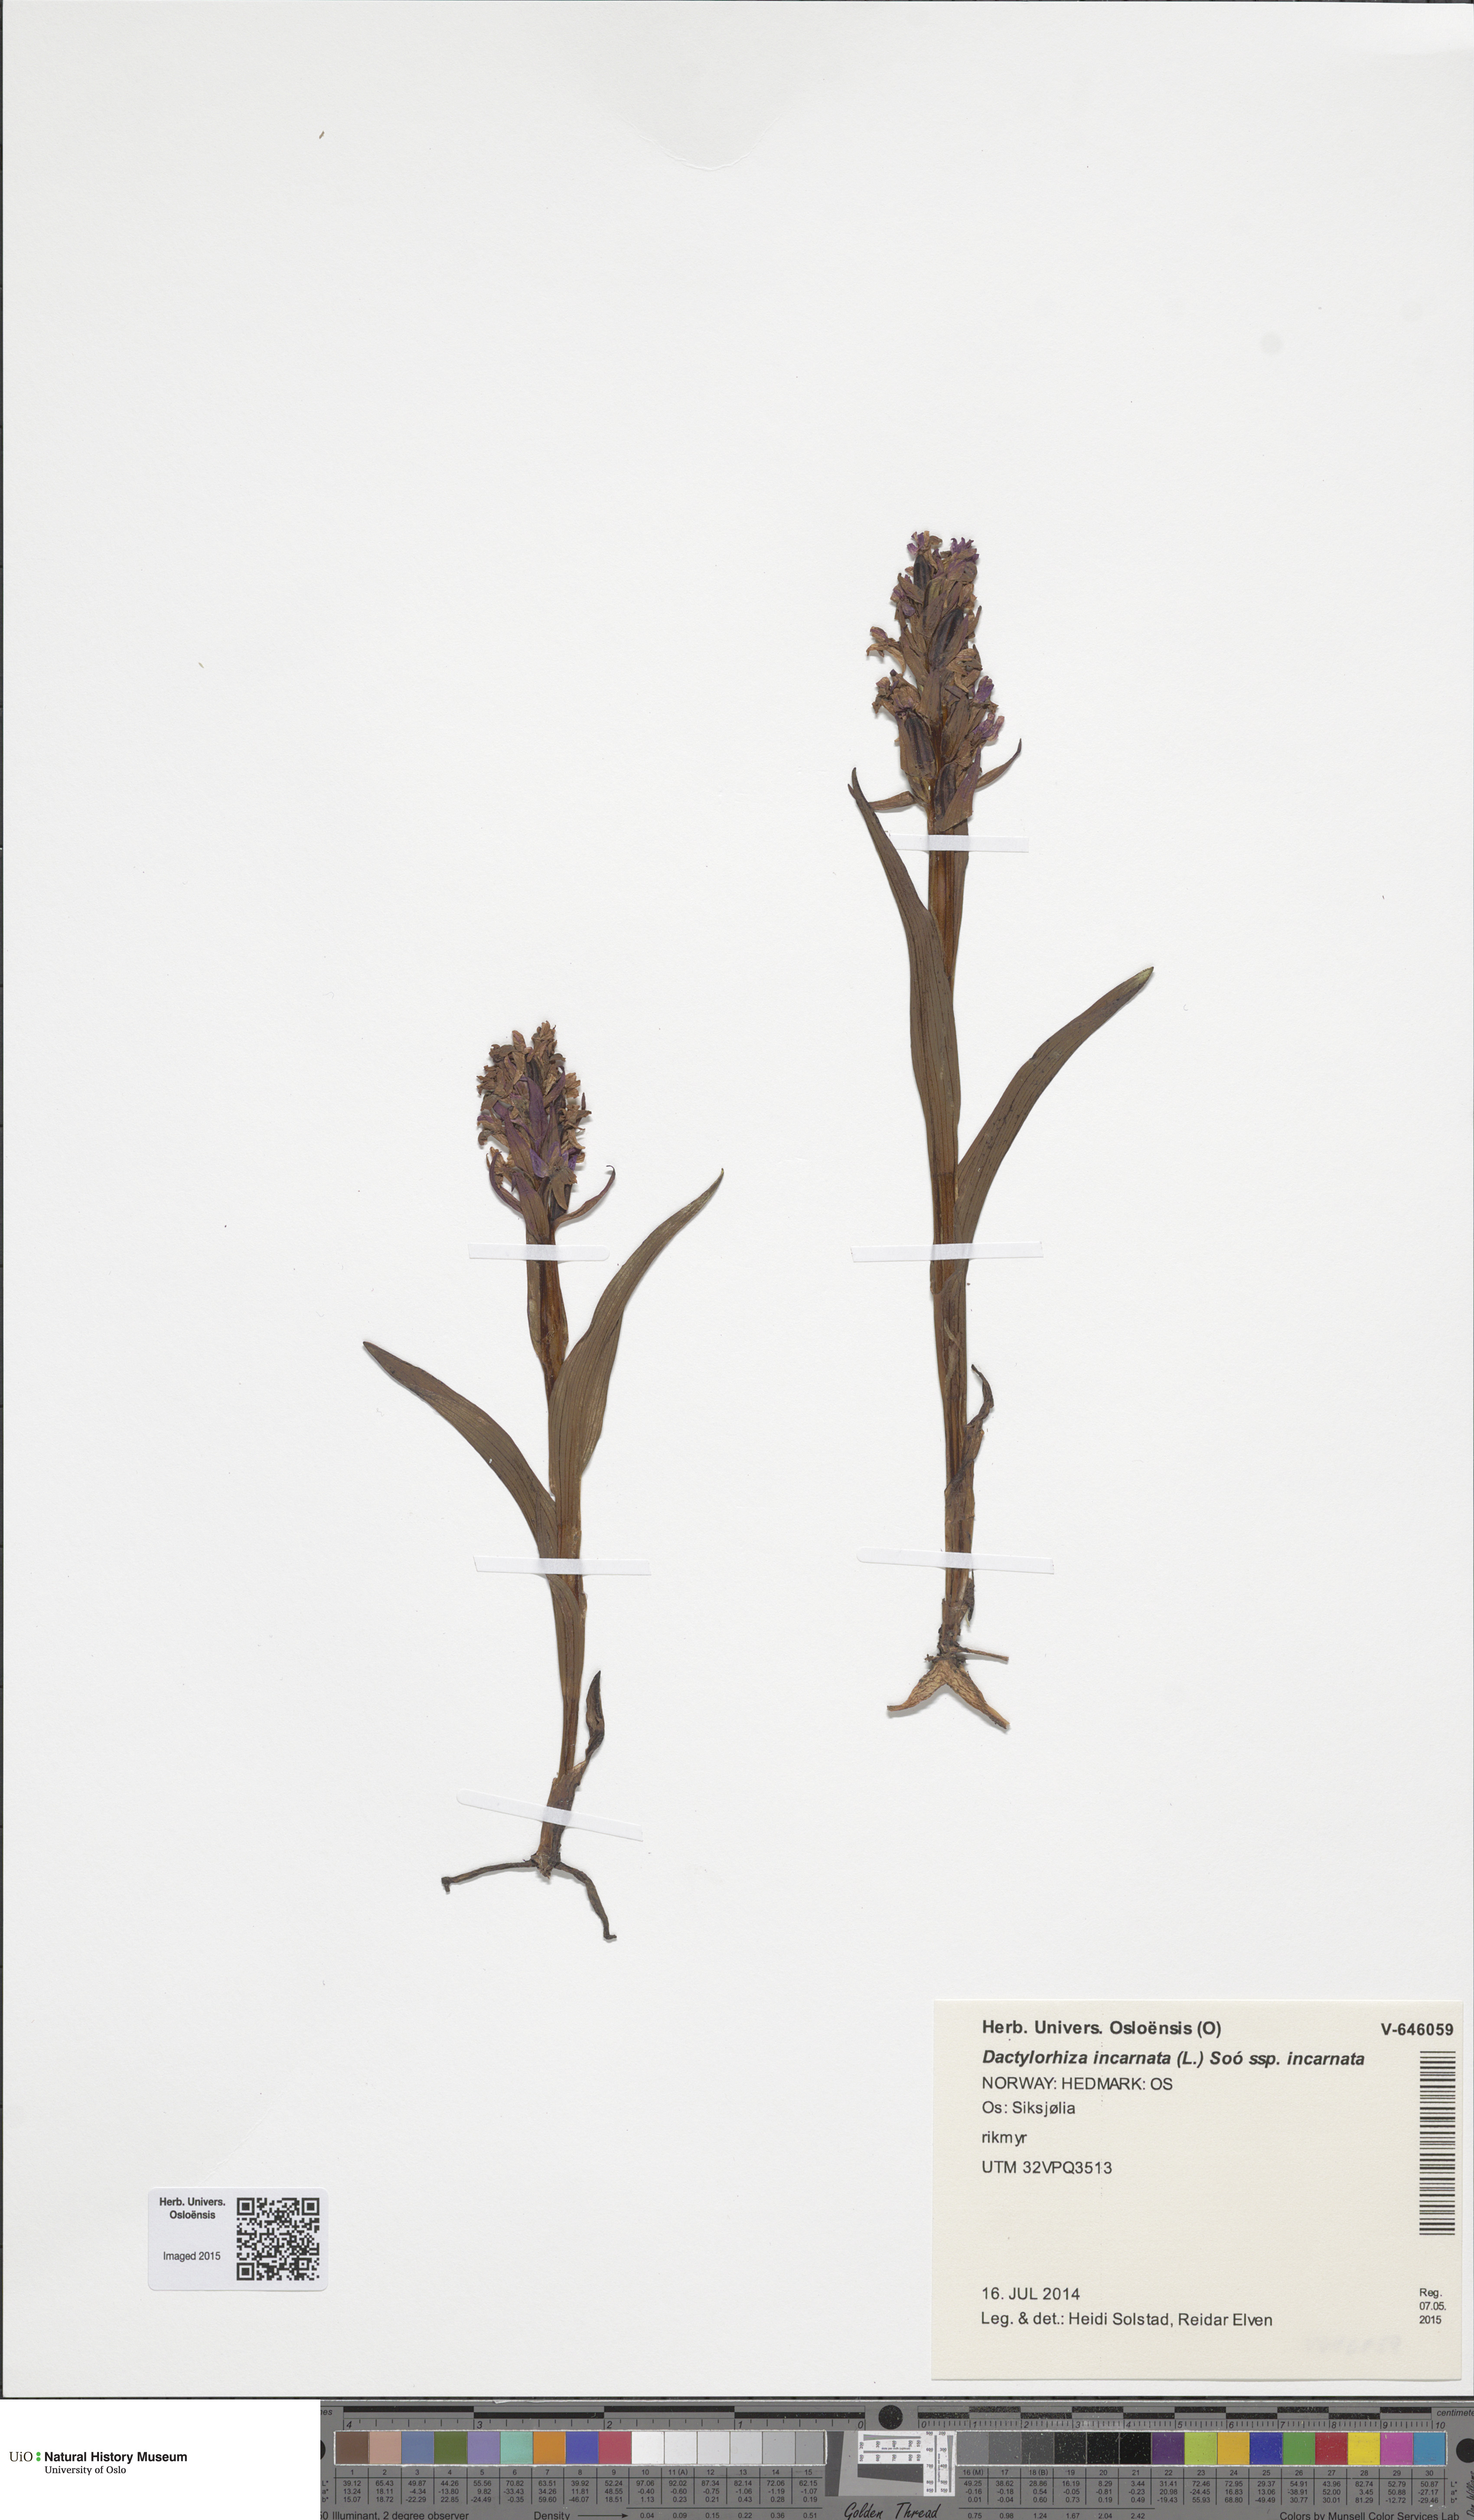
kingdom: Plantae
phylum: Tracheophyta
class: Liliopsida
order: Asparagales
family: Orchidaceae
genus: Dactylorhiza
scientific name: Dactylorhiza incarnata
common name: Early marsh-orchid
